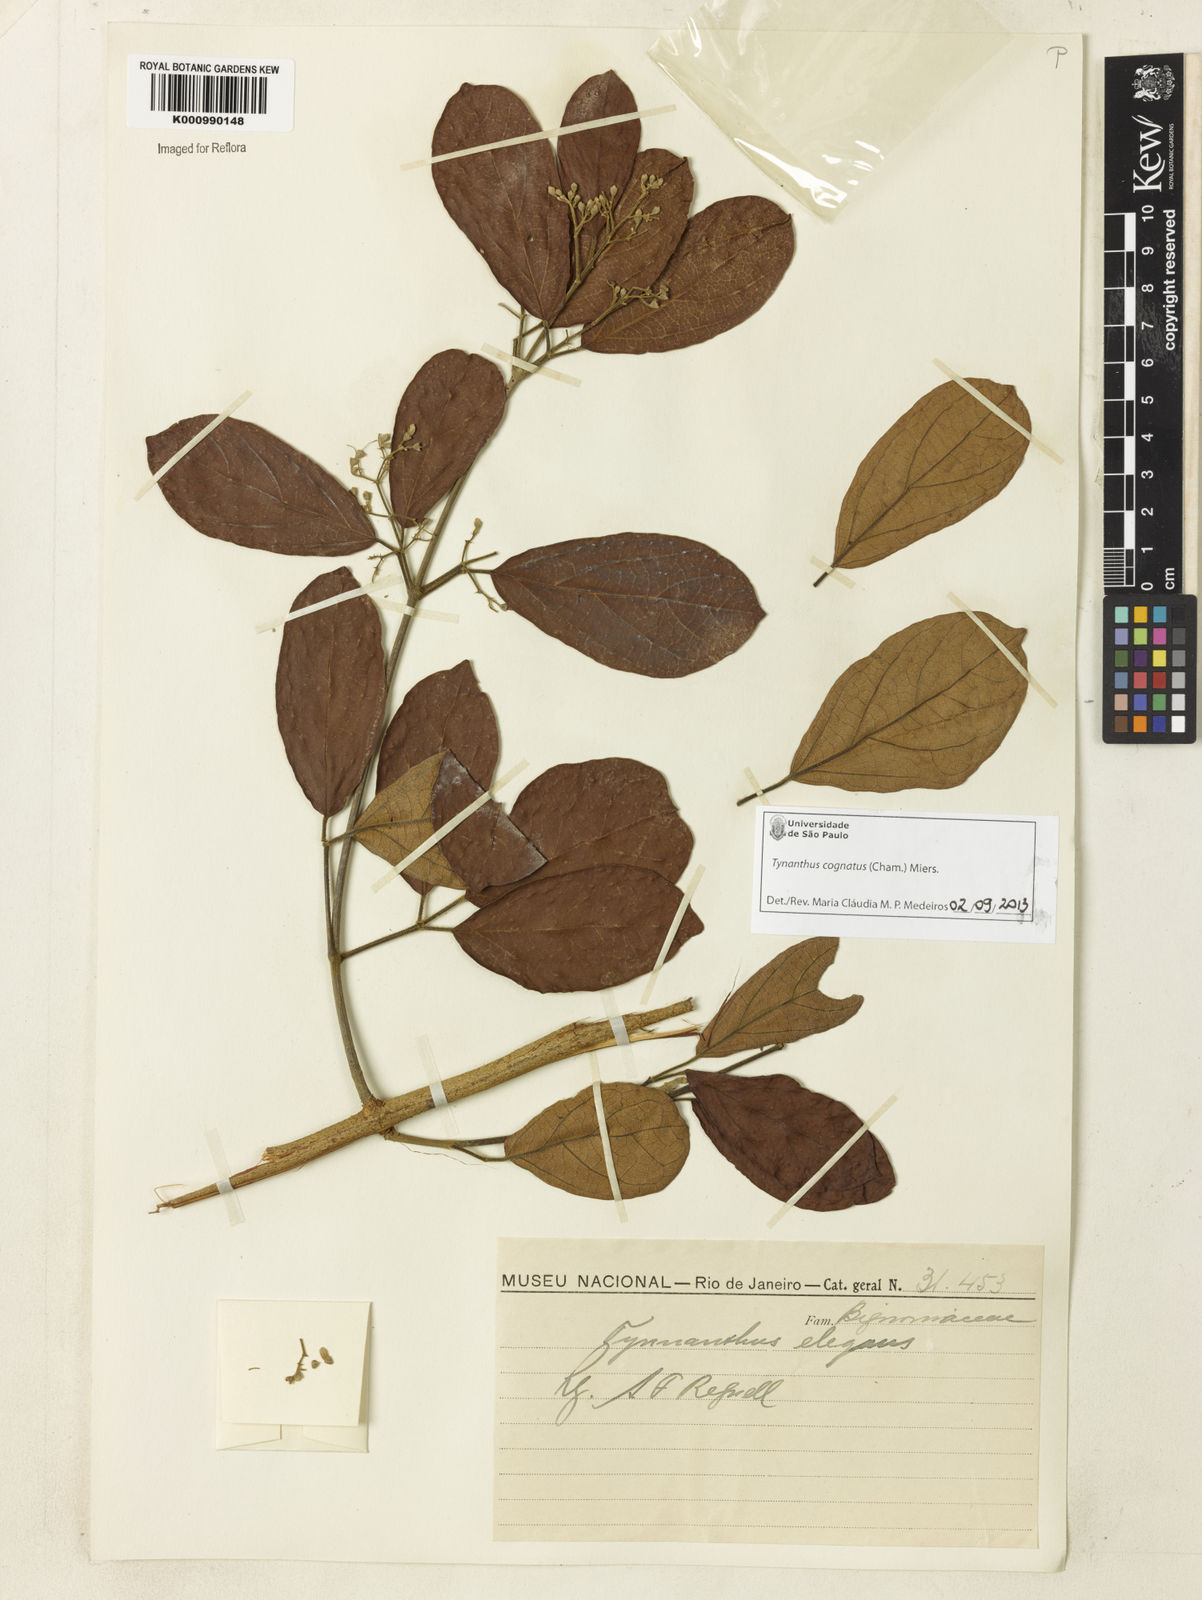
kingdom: Plantae
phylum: Tracheophyta
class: Magnoliopsida
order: Lamiales
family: Bignoniaceae
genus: Tynanthus
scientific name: Tynanthus cognatus
